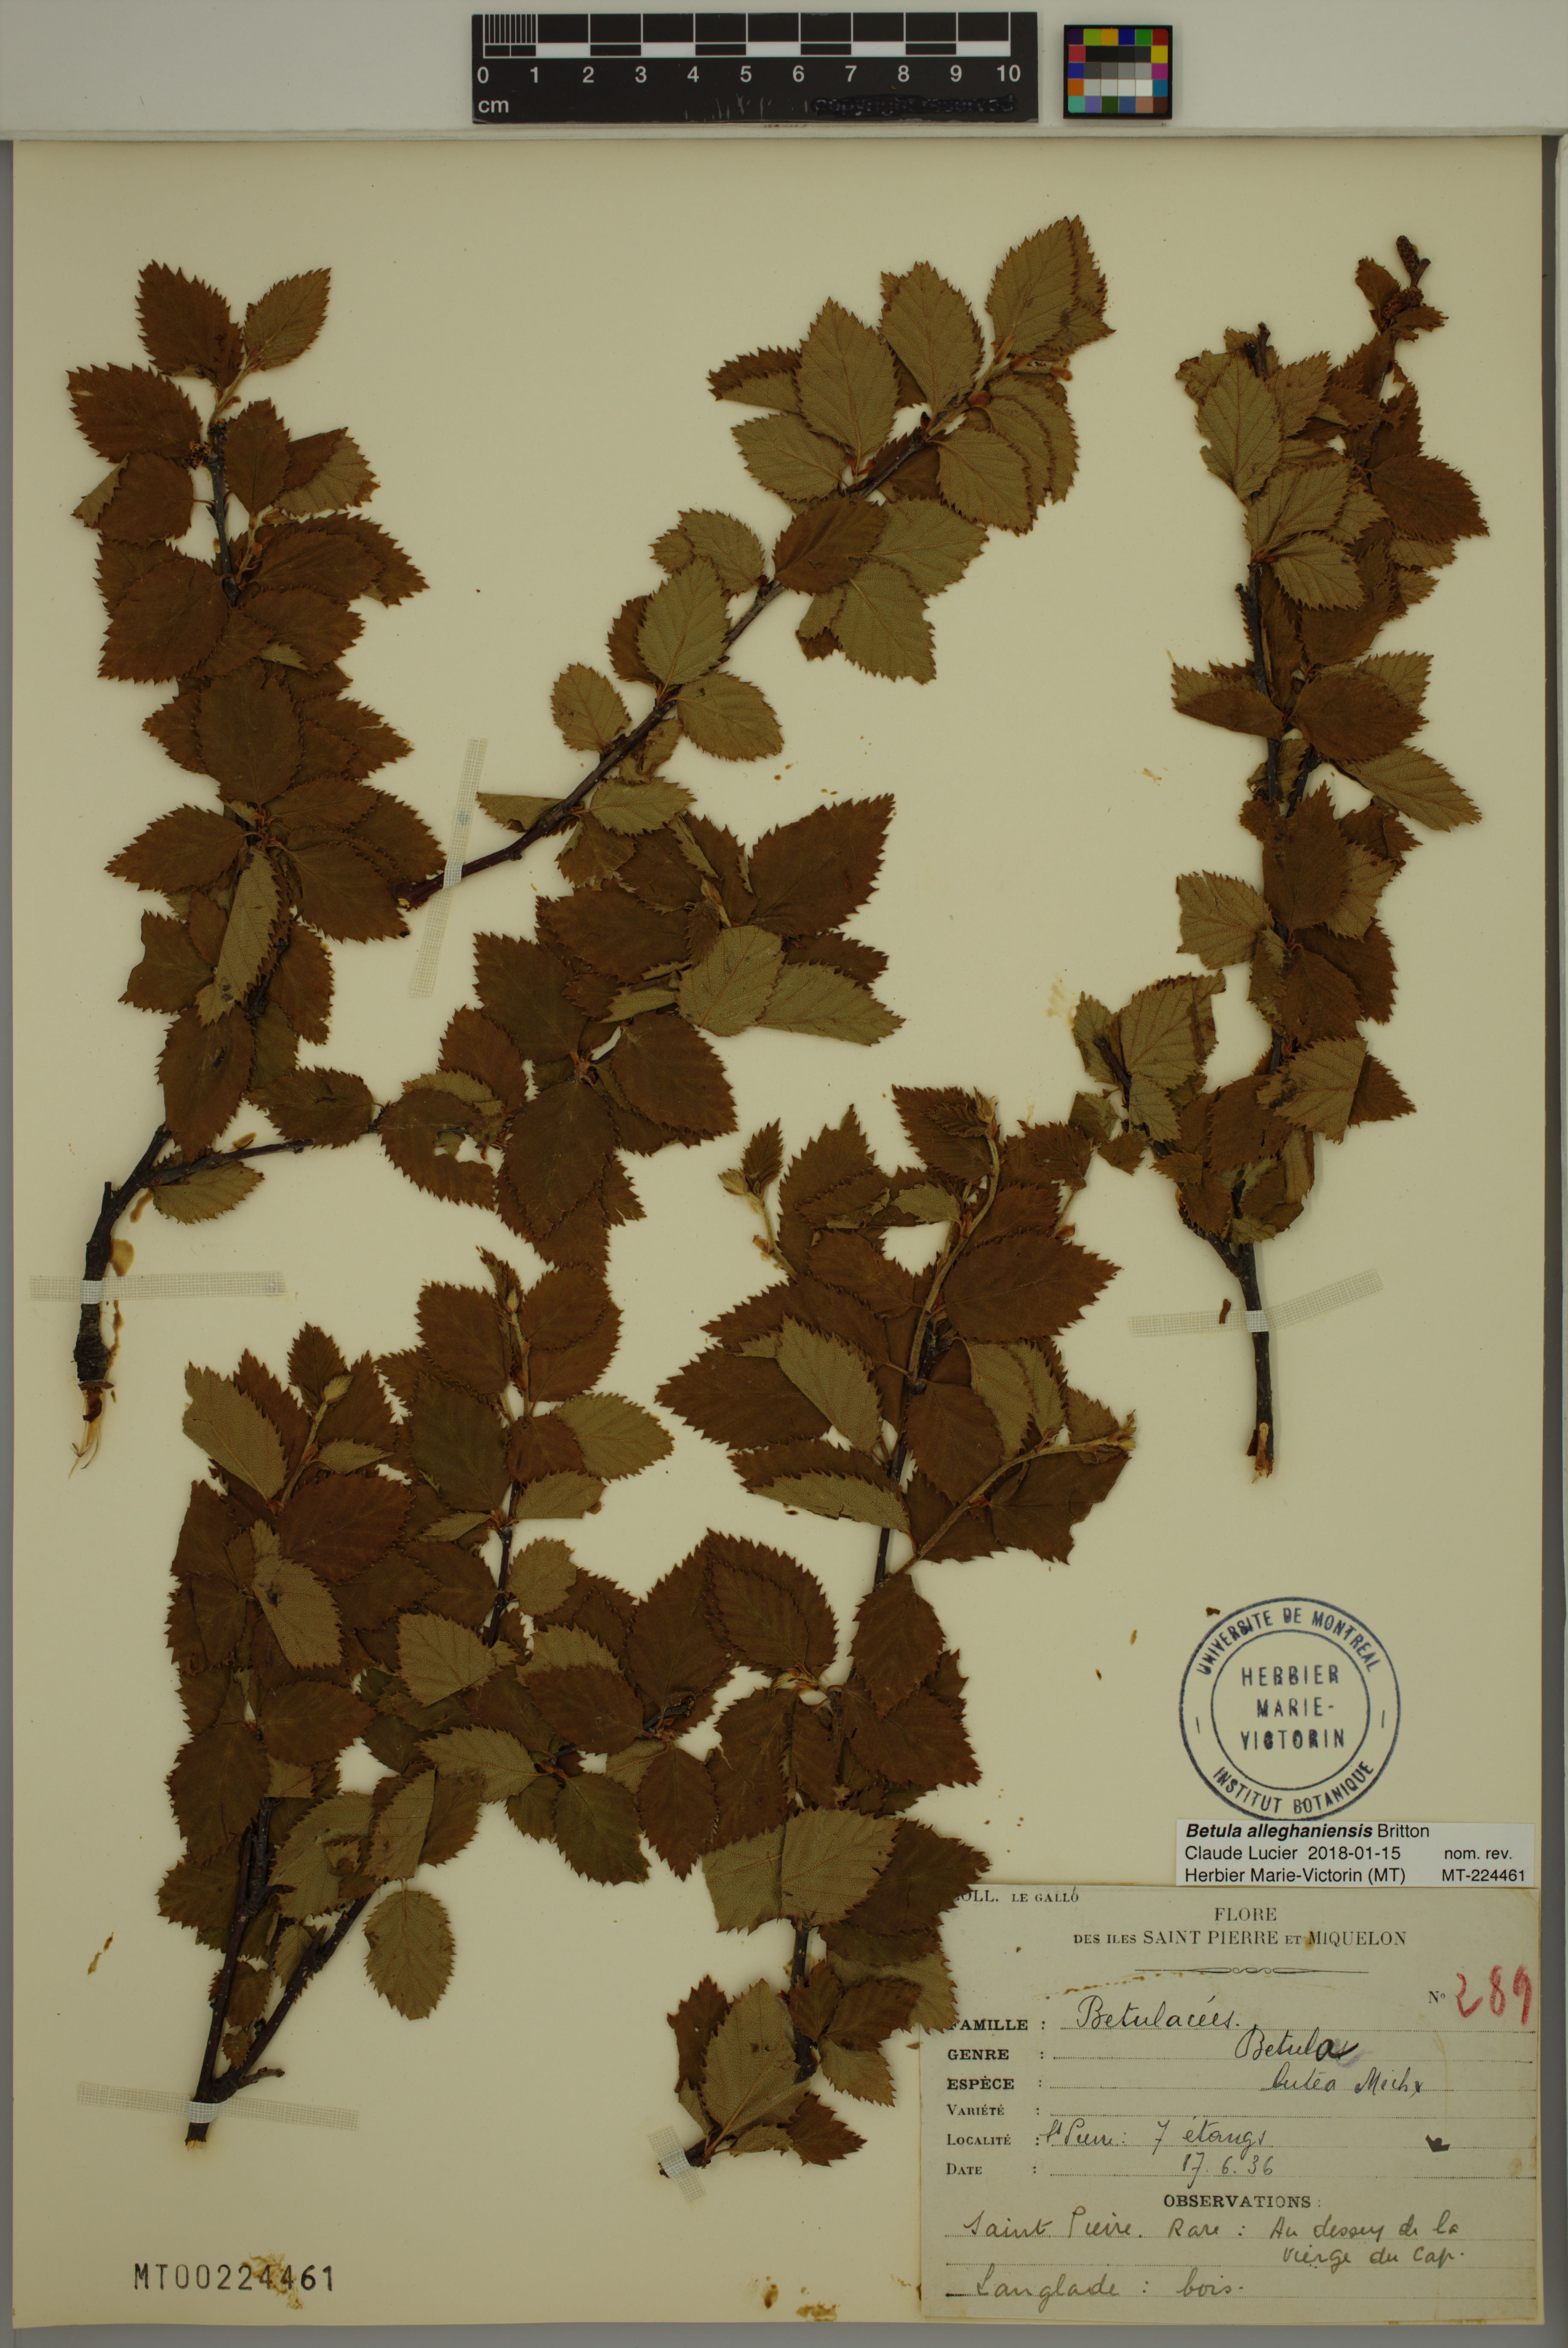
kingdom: Plantae
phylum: Tracheophyta
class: Magnoliopsida
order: Fagales
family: Betulaceae
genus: Betula
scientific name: Betula alleghaniensis
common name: Yellow birch
